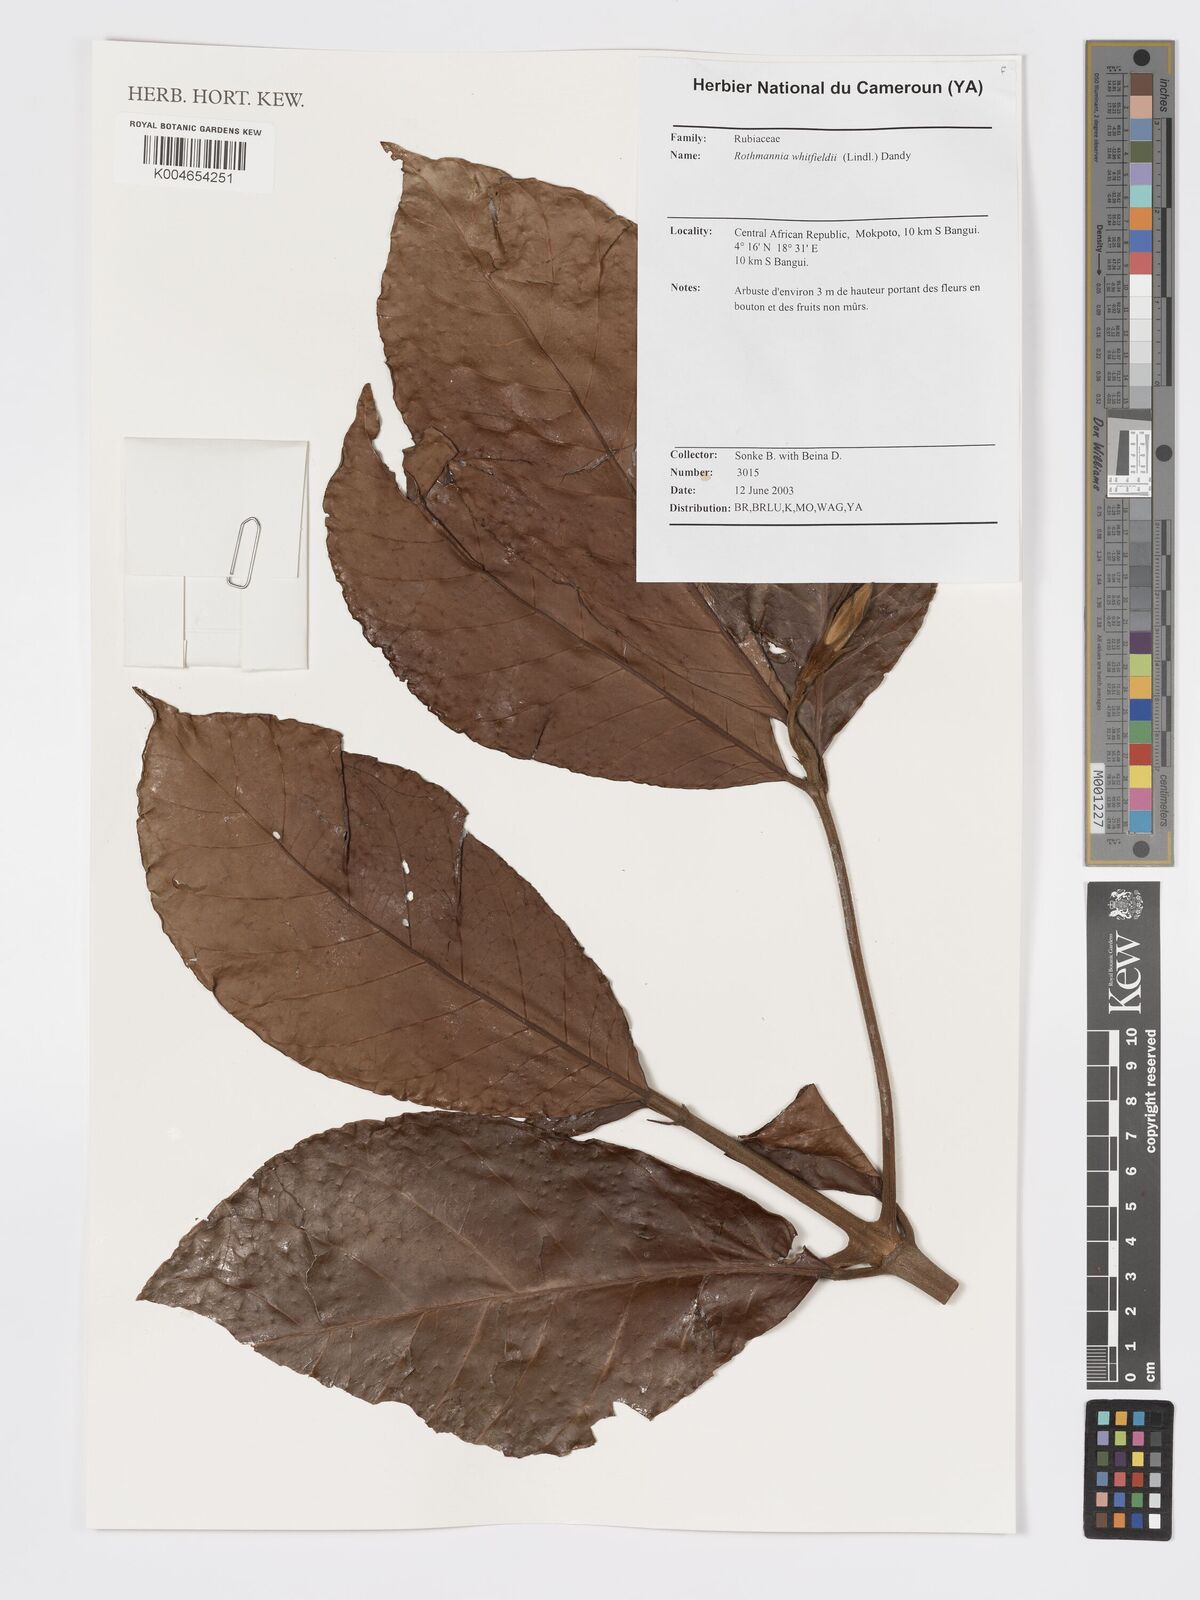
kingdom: Plantae
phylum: Tracheophyta
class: Magnoliopsida
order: Gentianales
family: Rubiaceae
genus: Rothmannia
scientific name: Rothmannia whitfieldii
